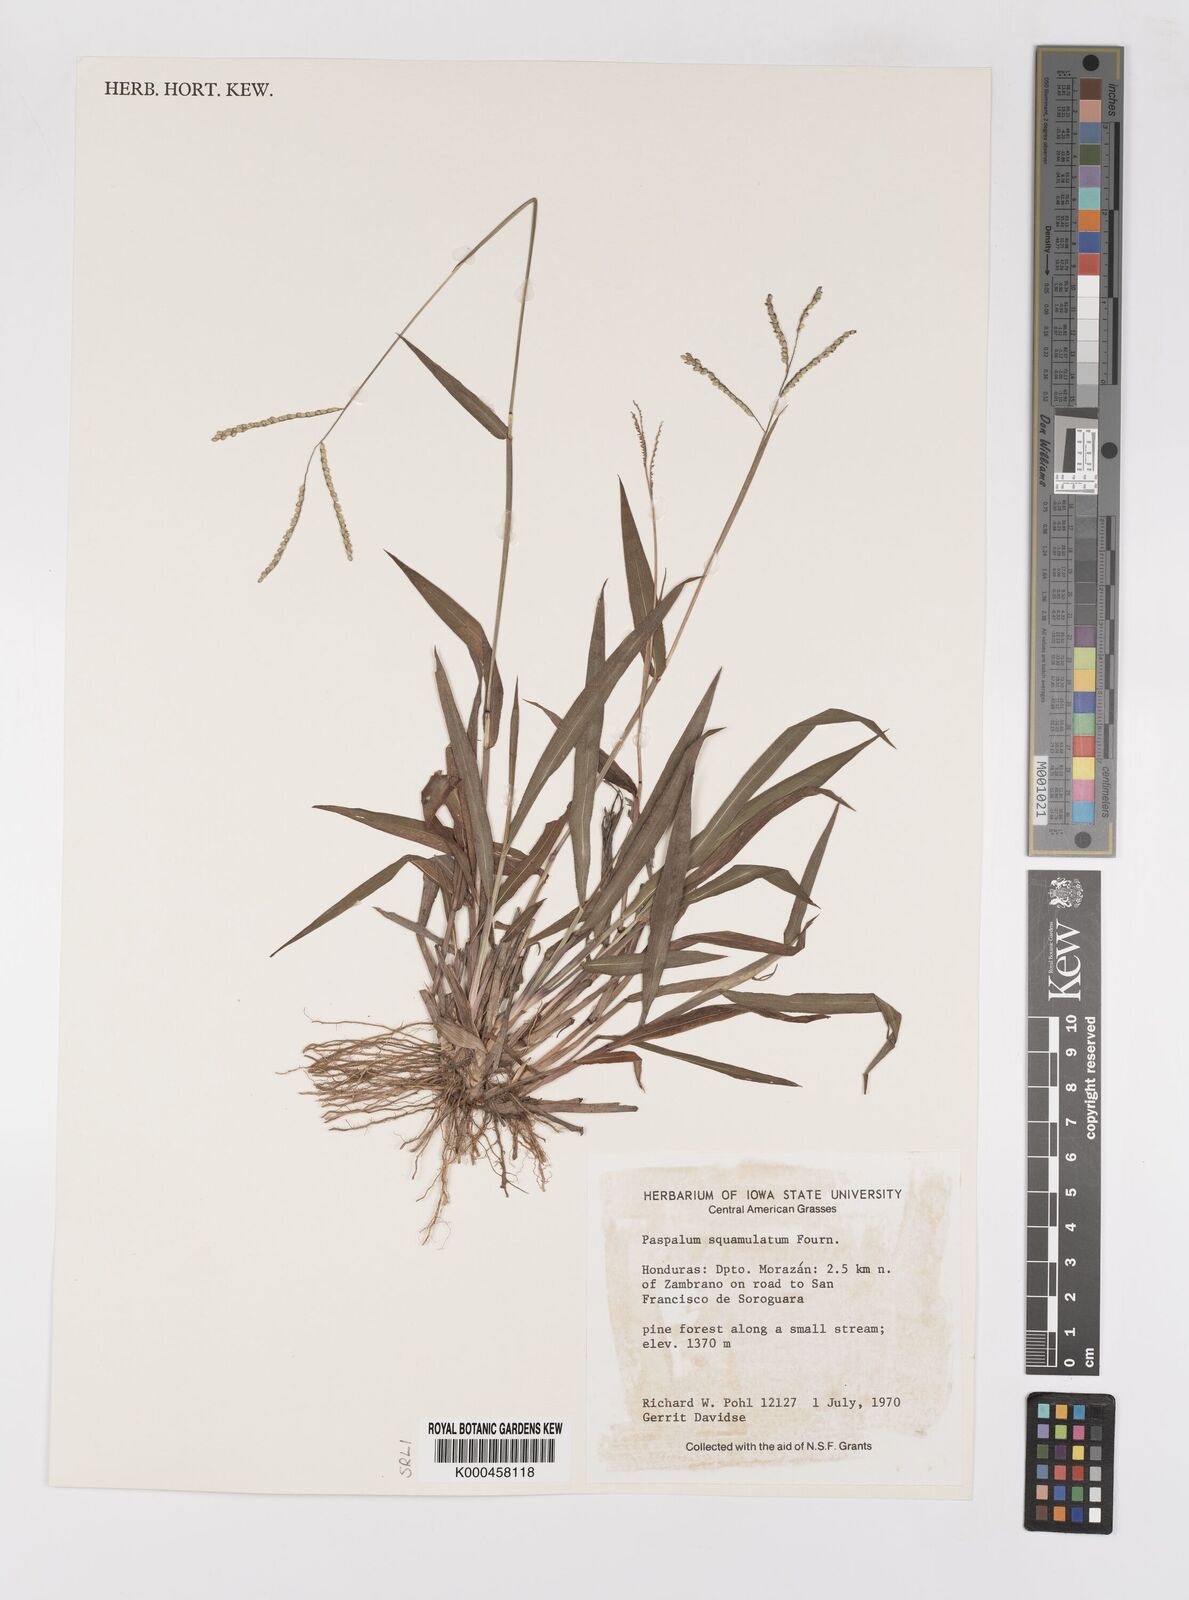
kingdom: Plantae
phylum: Tracheophyta
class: Liliopsida
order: Poales
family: Poaceae
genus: Paspalum
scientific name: Paspalum
